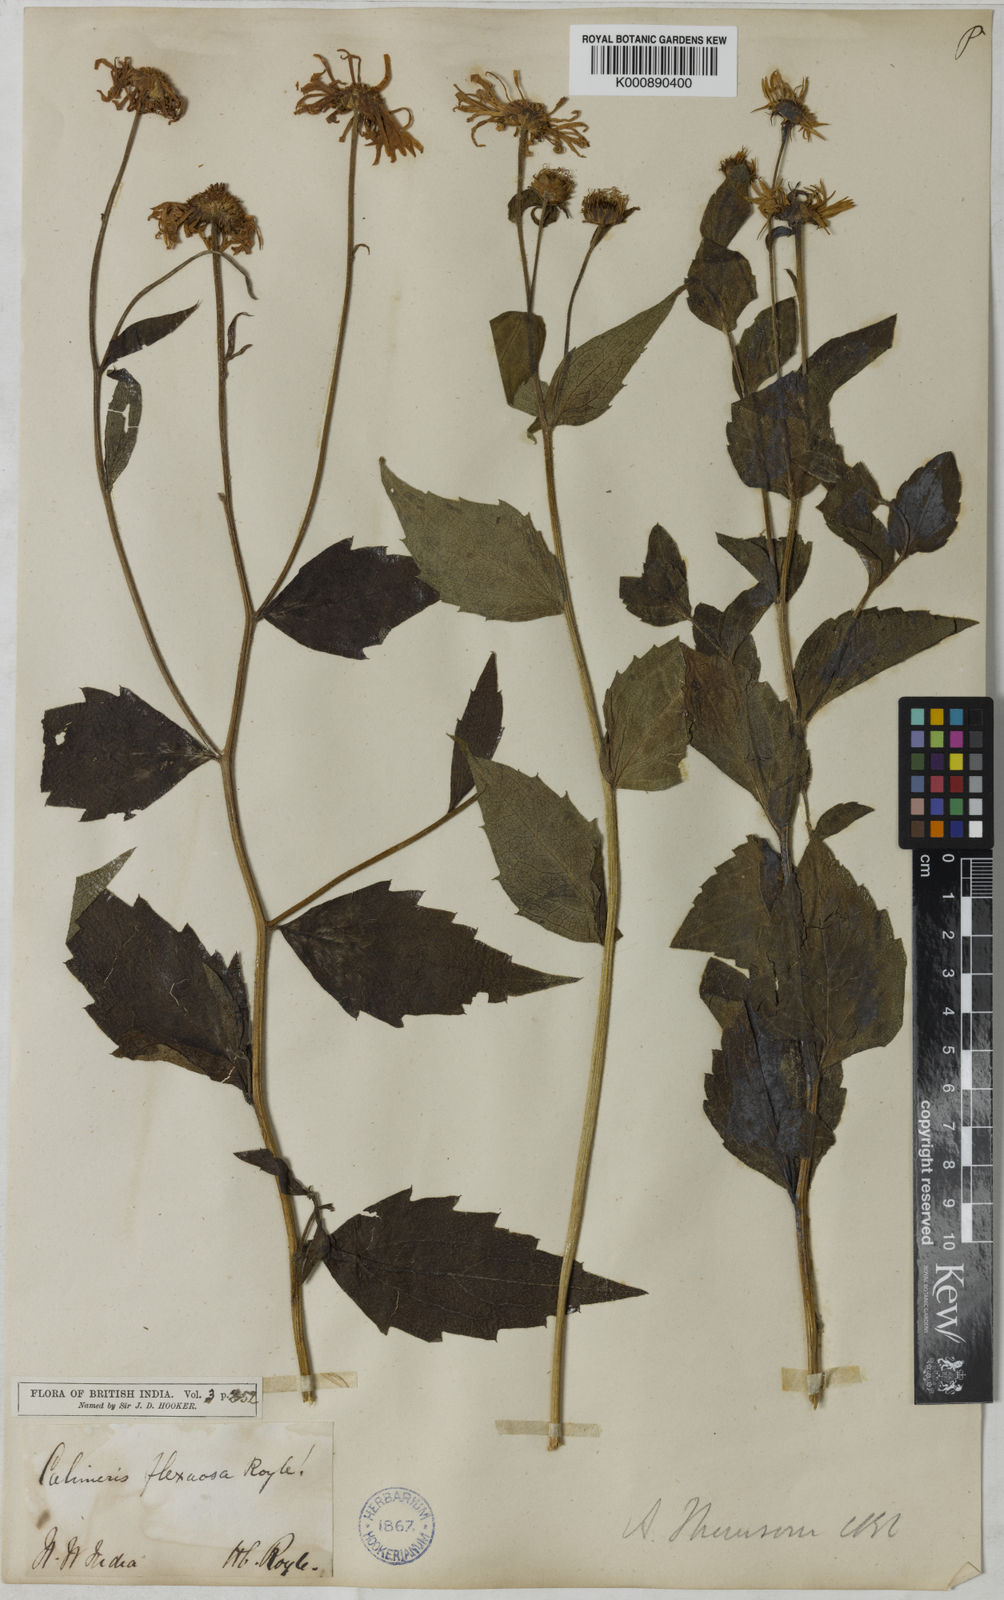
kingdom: Plantae
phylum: Tracheophyta
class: Magnoliopsida
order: Asterales
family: Asteraceae
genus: Cordiofontis
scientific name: Cordiofontis flexuosa
